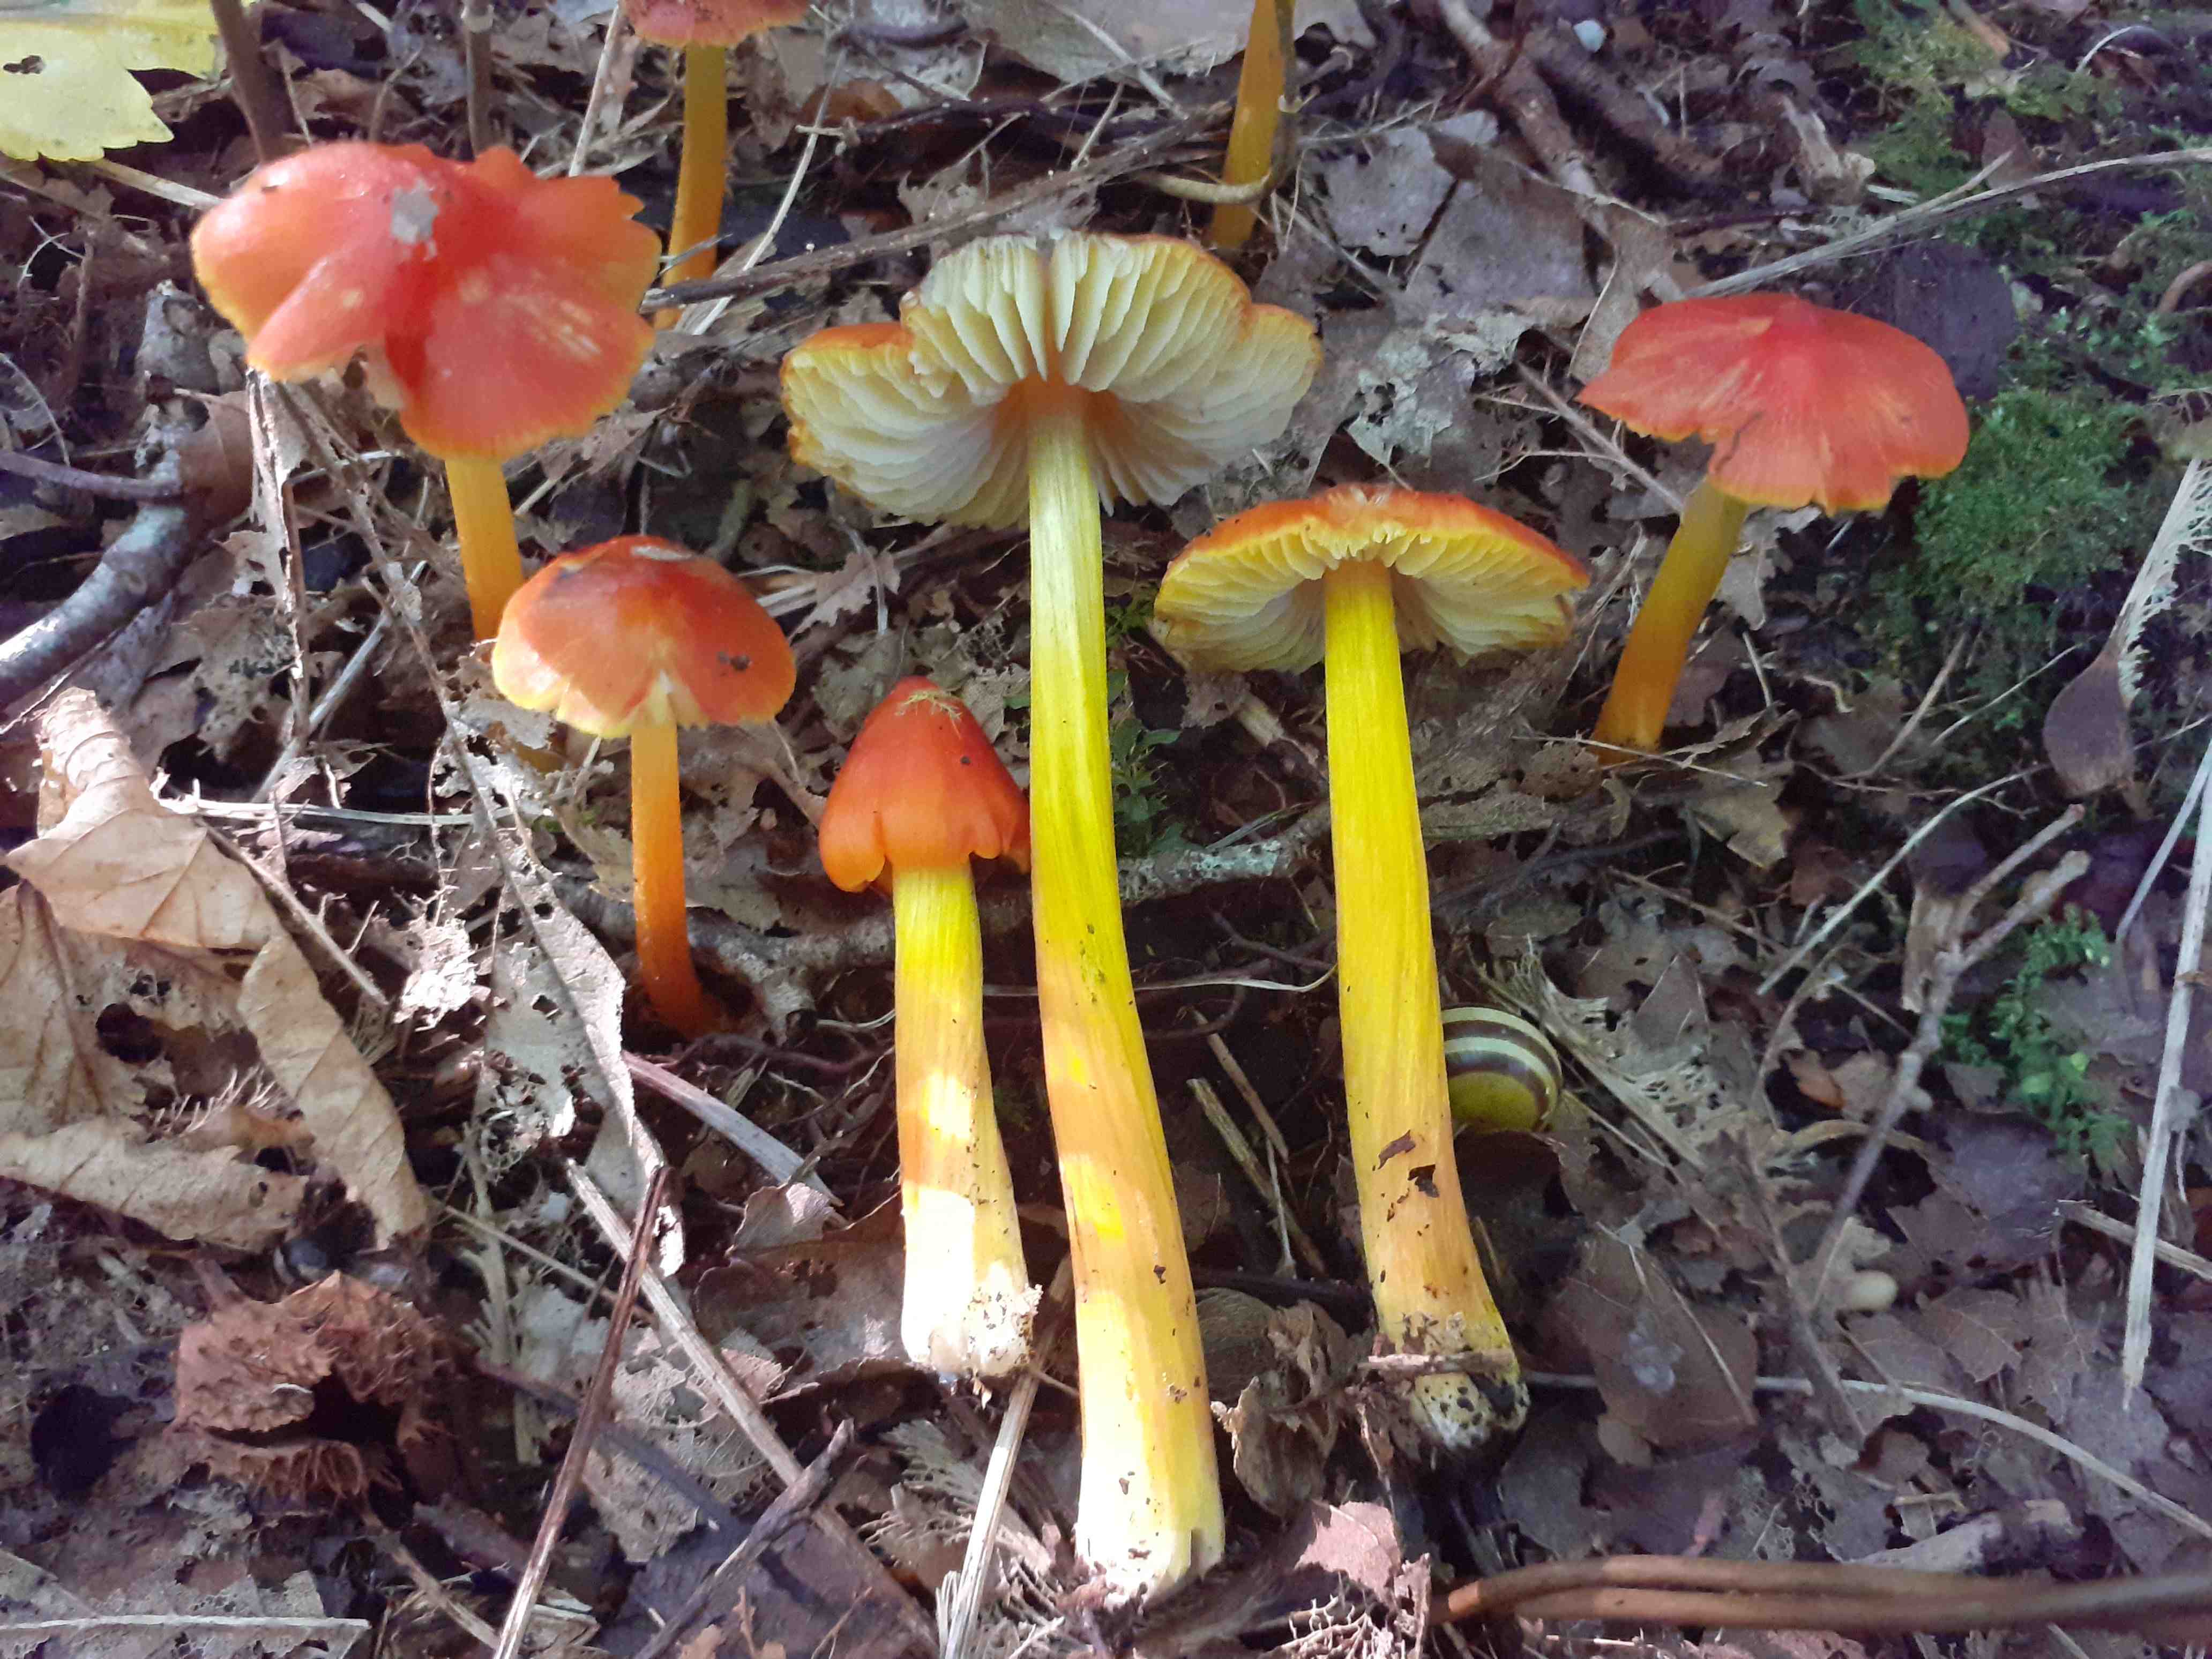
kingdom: Fungi
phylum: Basidiomycota
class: Agaricomycetes
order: Agaricales
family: Hygrophoraceae
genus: Hygrocybe
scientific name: Hygrocybe conica
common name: kegle-vokshat
